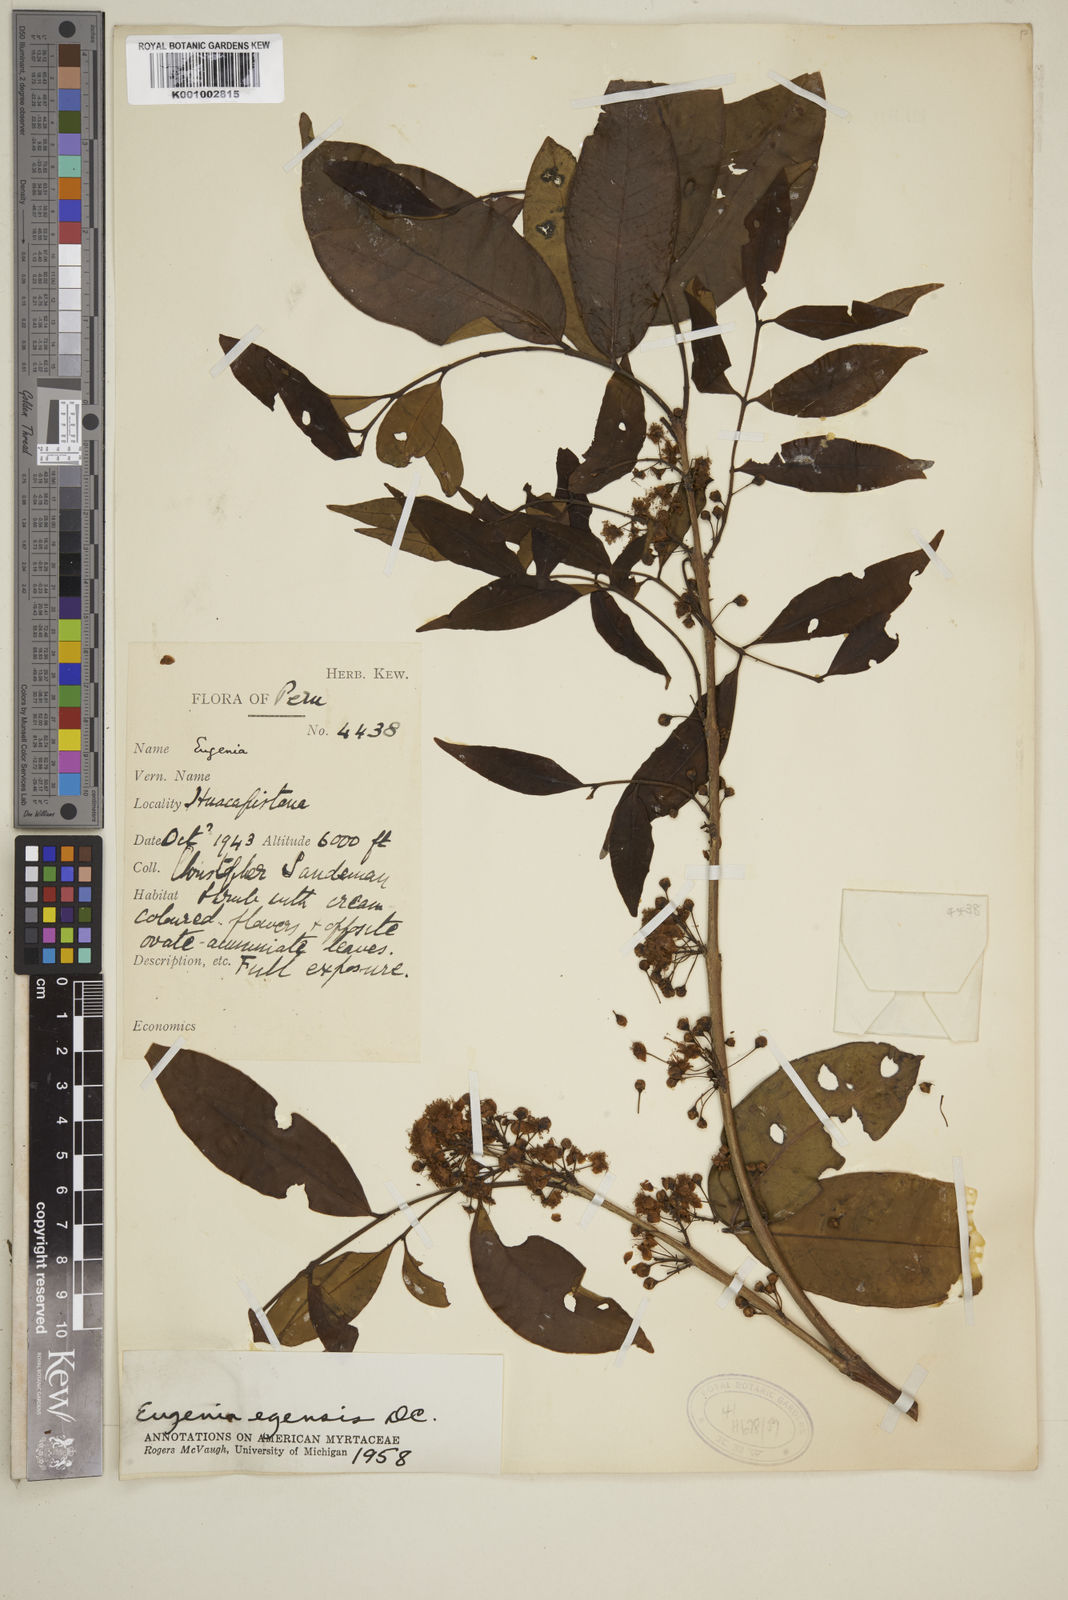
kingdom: Plantae
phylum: Tracheophyta
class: Magnoliopsida
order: Myrtales
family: Myrtaceae
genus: Eugenia
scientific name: Eugenia egensis
